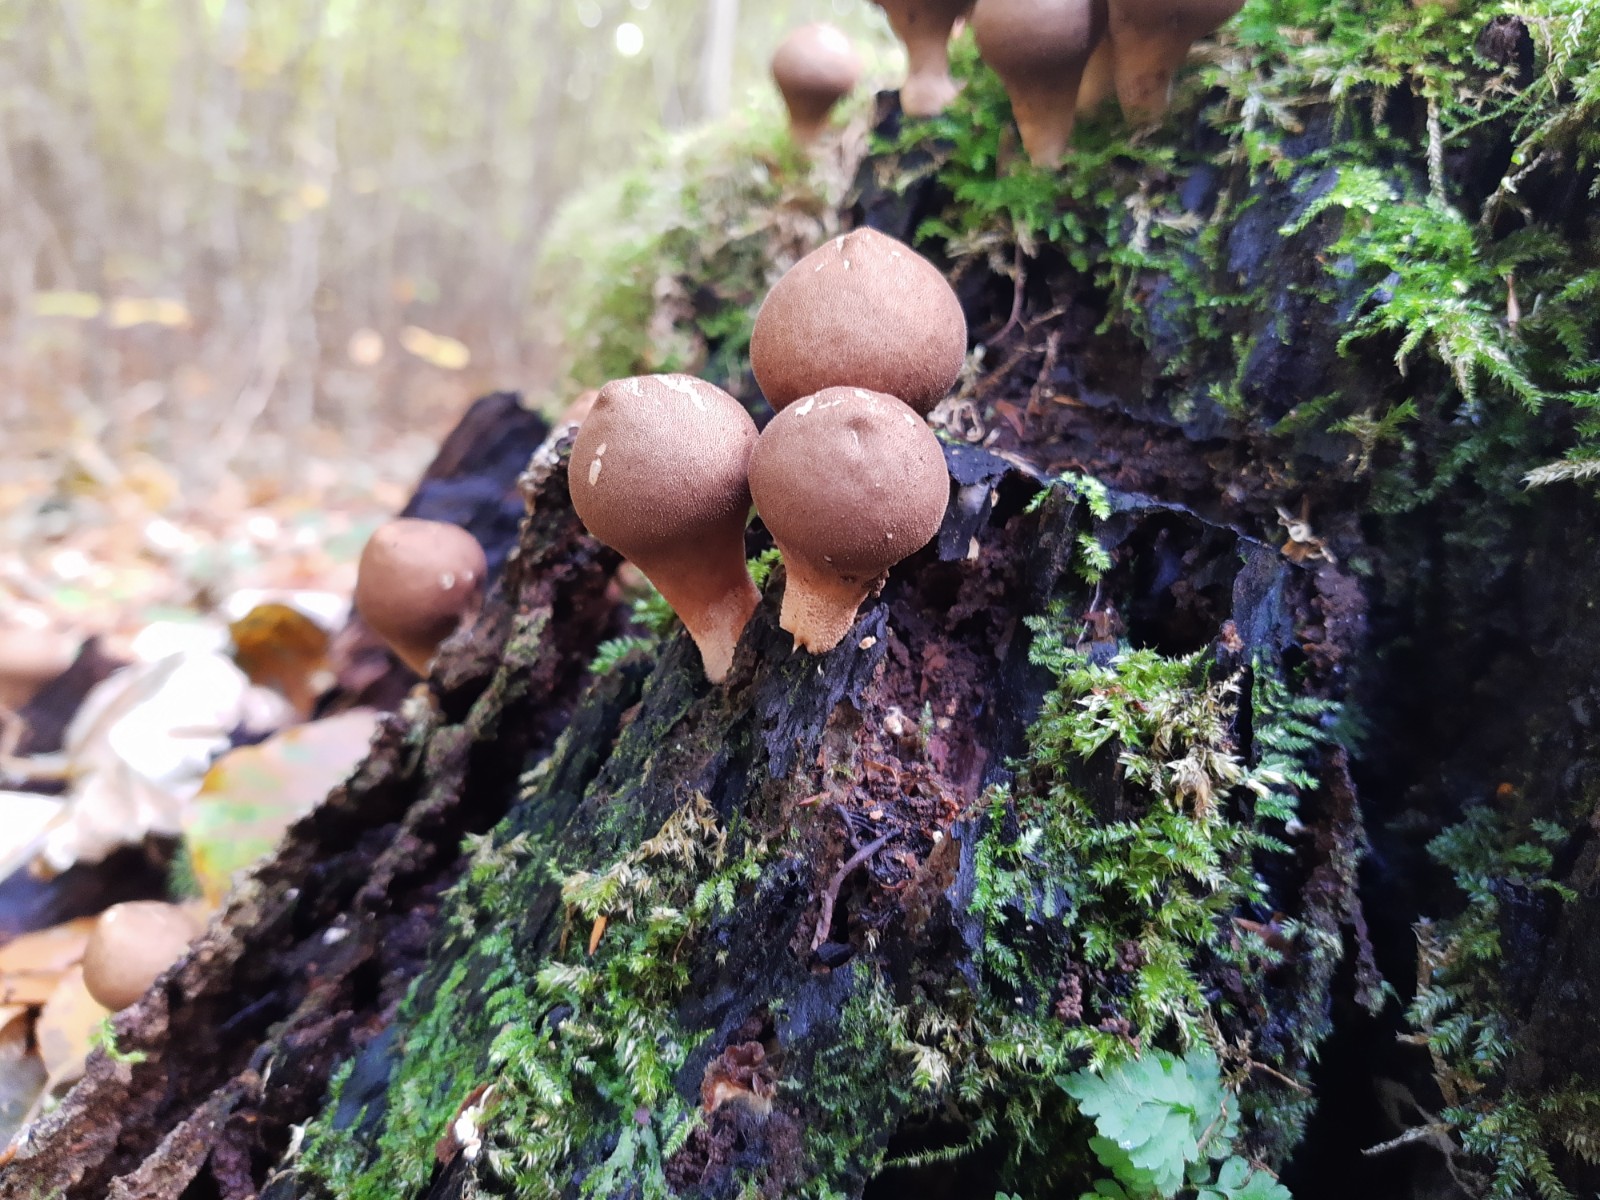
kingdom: Fungi
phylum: Basidiomycota
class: Agaricomycetes
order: Agaricales
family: Lycoperdaceae
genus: Apioperdon
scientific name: Apioperdon pyriforme
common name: pære-støvbold
